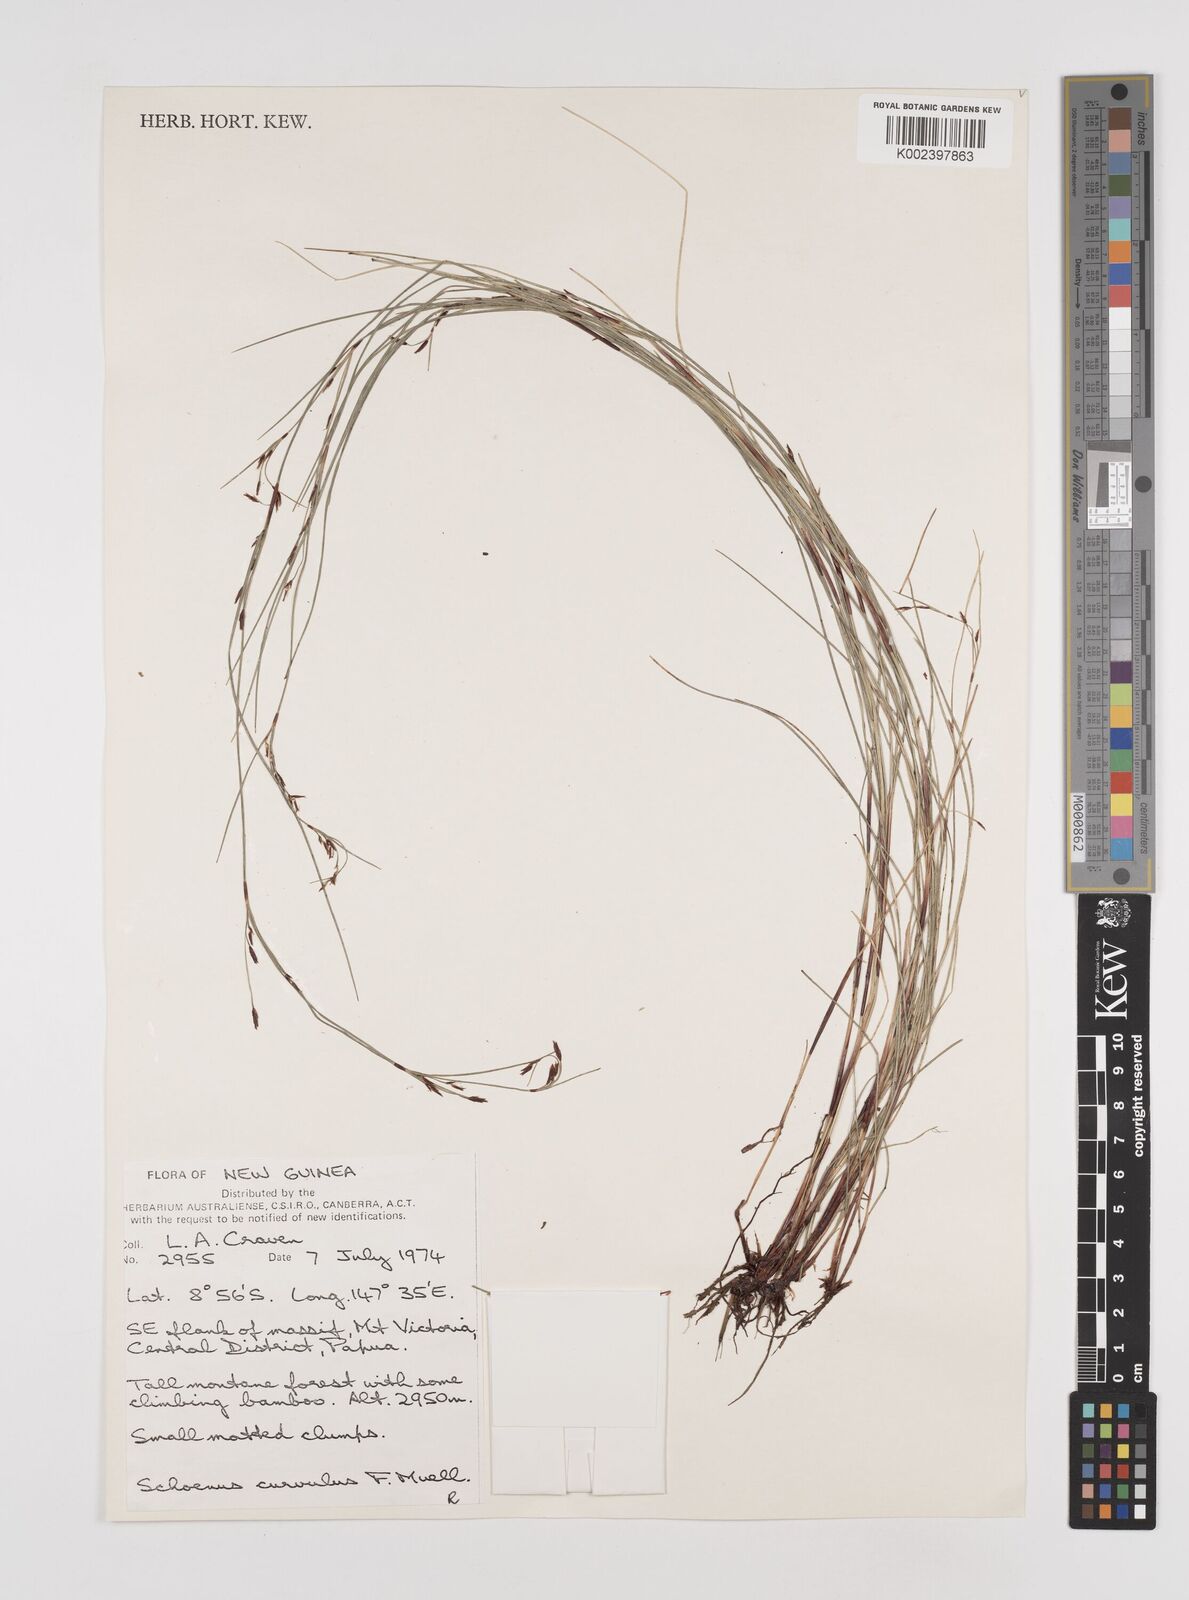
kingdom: Plantae
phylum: Tracheophyta
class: Liliopsida
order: Poales
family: Cyperaceae
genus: Schoenus
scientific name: Schoenus curvulus
